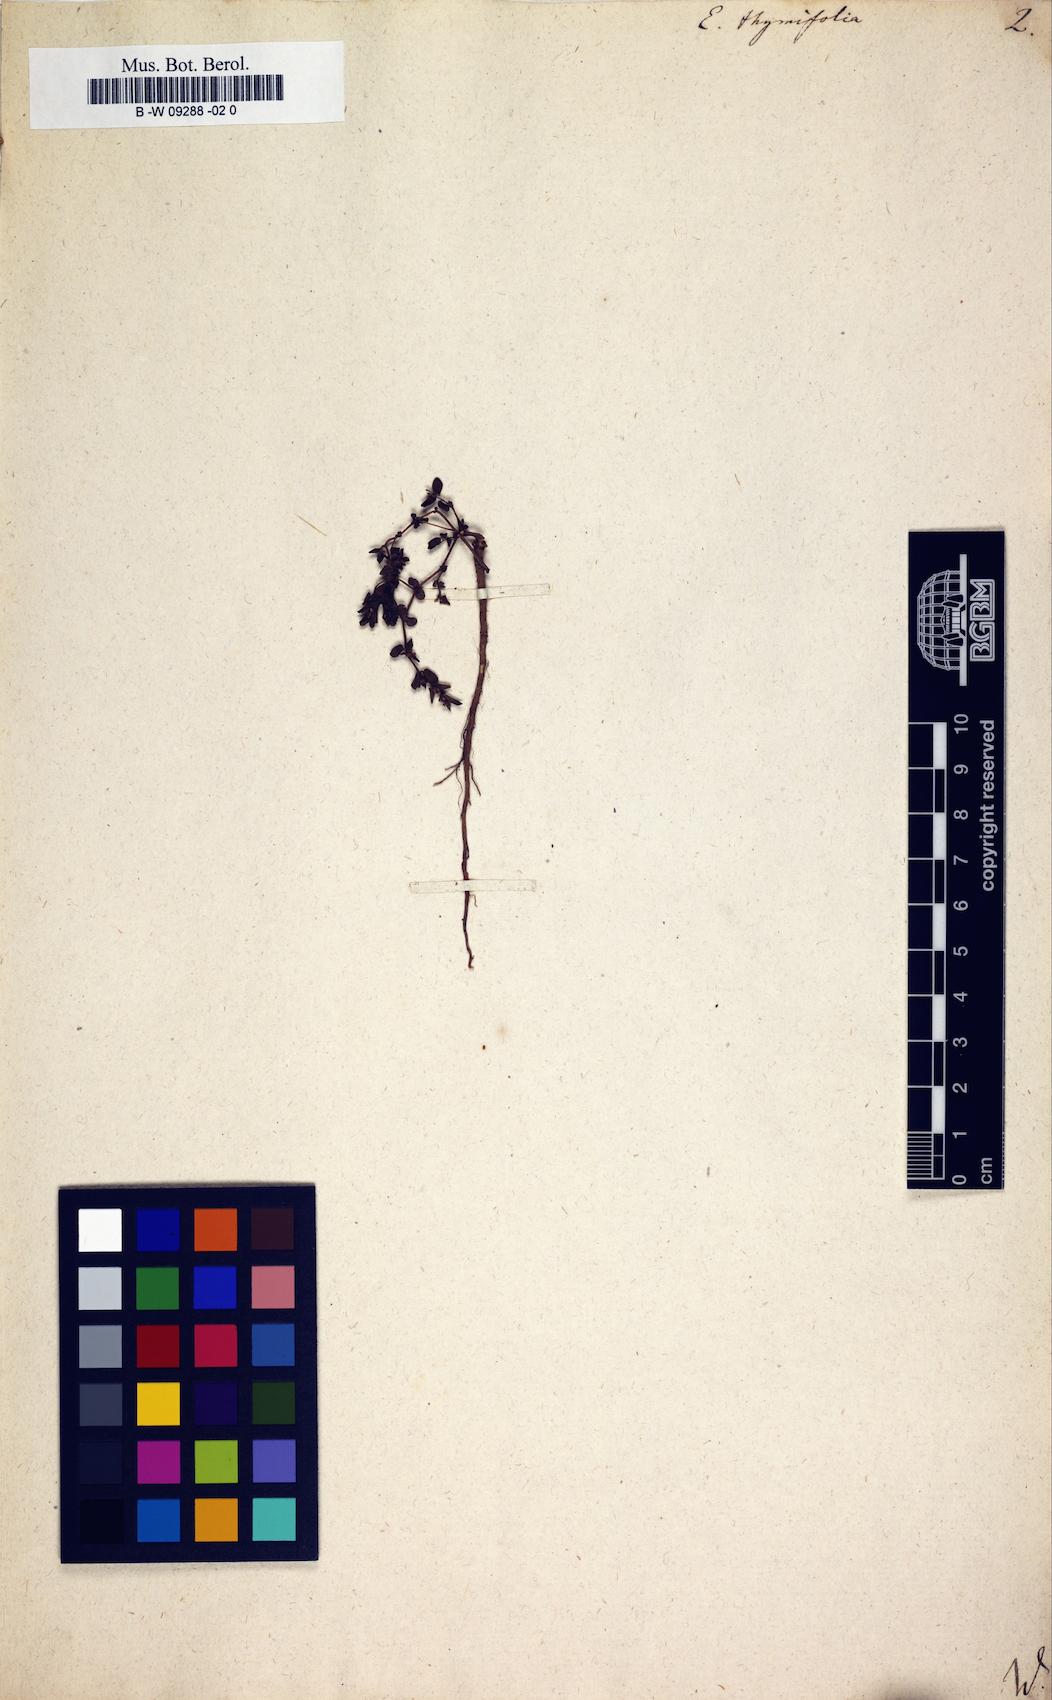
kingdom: Plantae
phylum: Tracheophyta
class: Magnoliopsida
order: Malpighiales
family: Euphorbiaceae
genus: Euphorbia
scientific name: Euphorbia thymifolia
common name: Gulf sandmat
